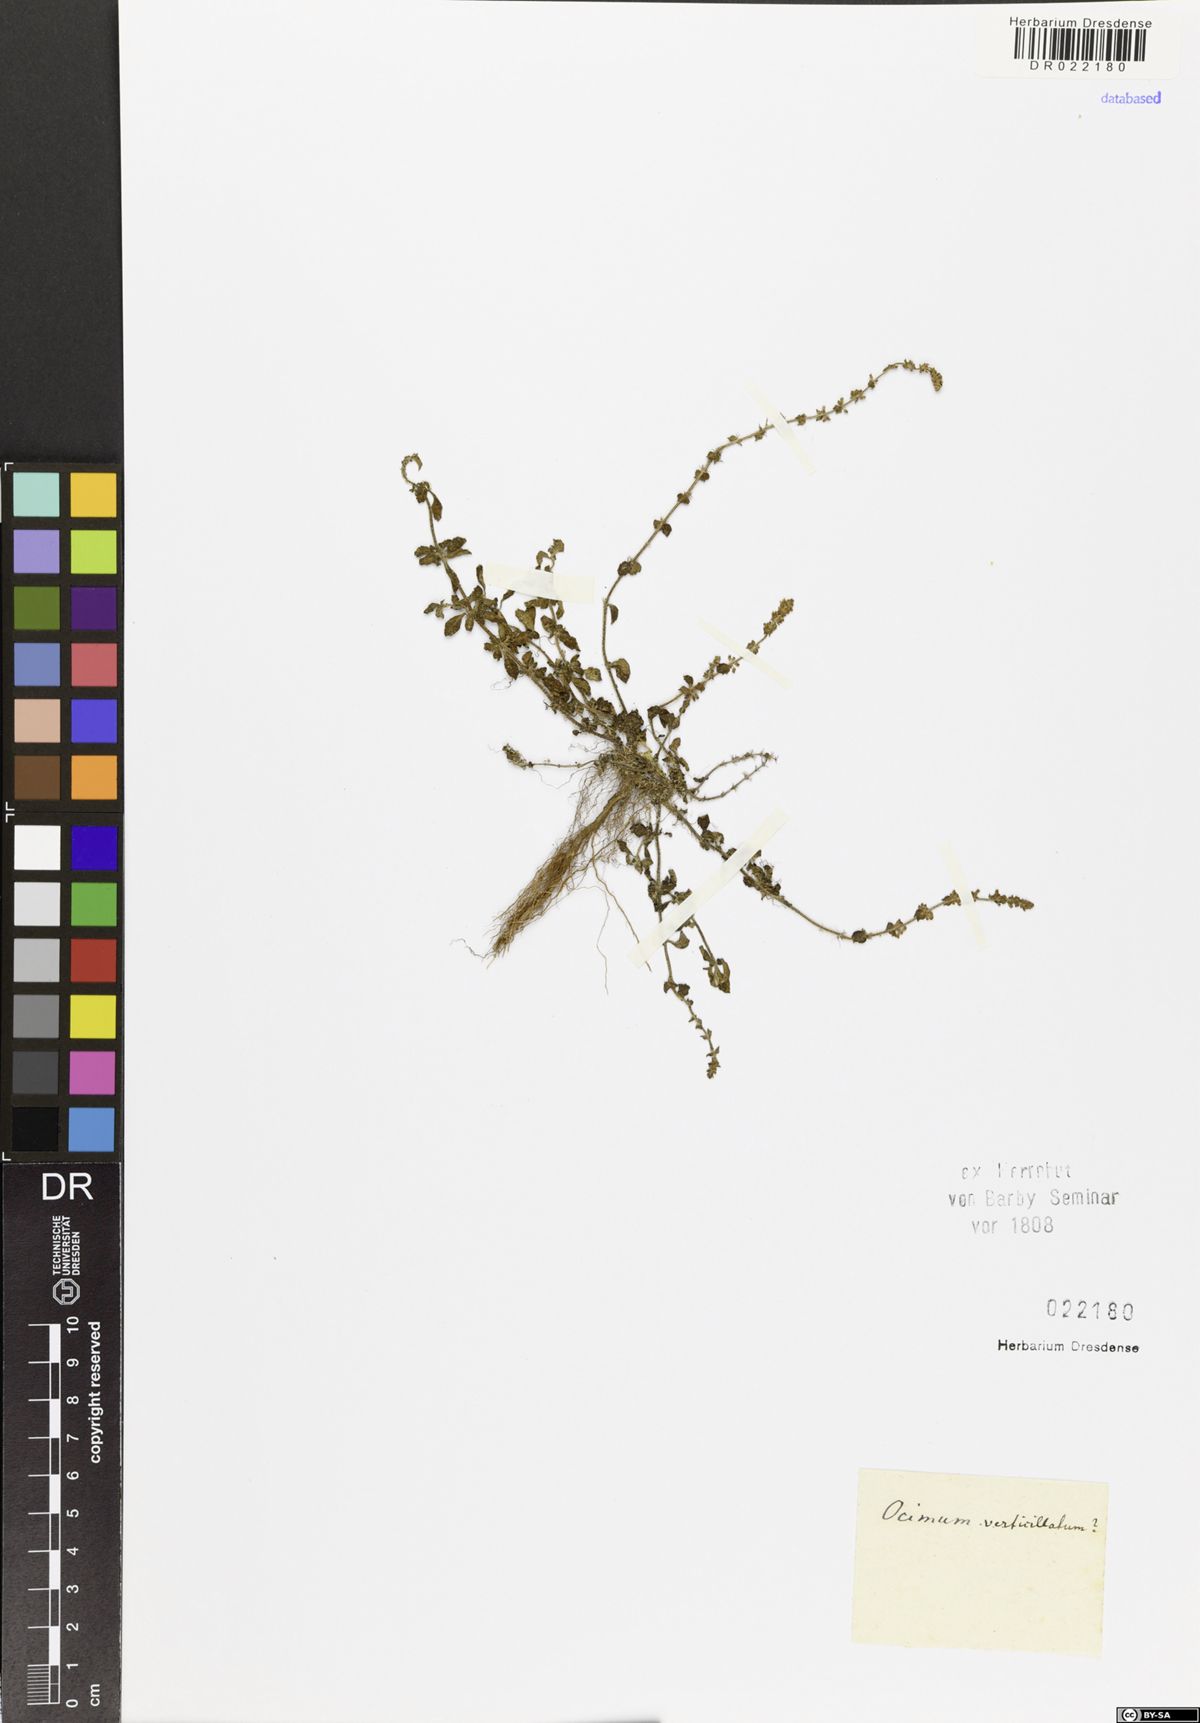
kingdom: Plantae
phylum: Tracheophyta
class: Magnoliopsida
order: Lamiales
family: Lamiaceae
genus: Plectranthus
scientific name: Plectranthus verticillatus
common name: Whorled plectranthus
